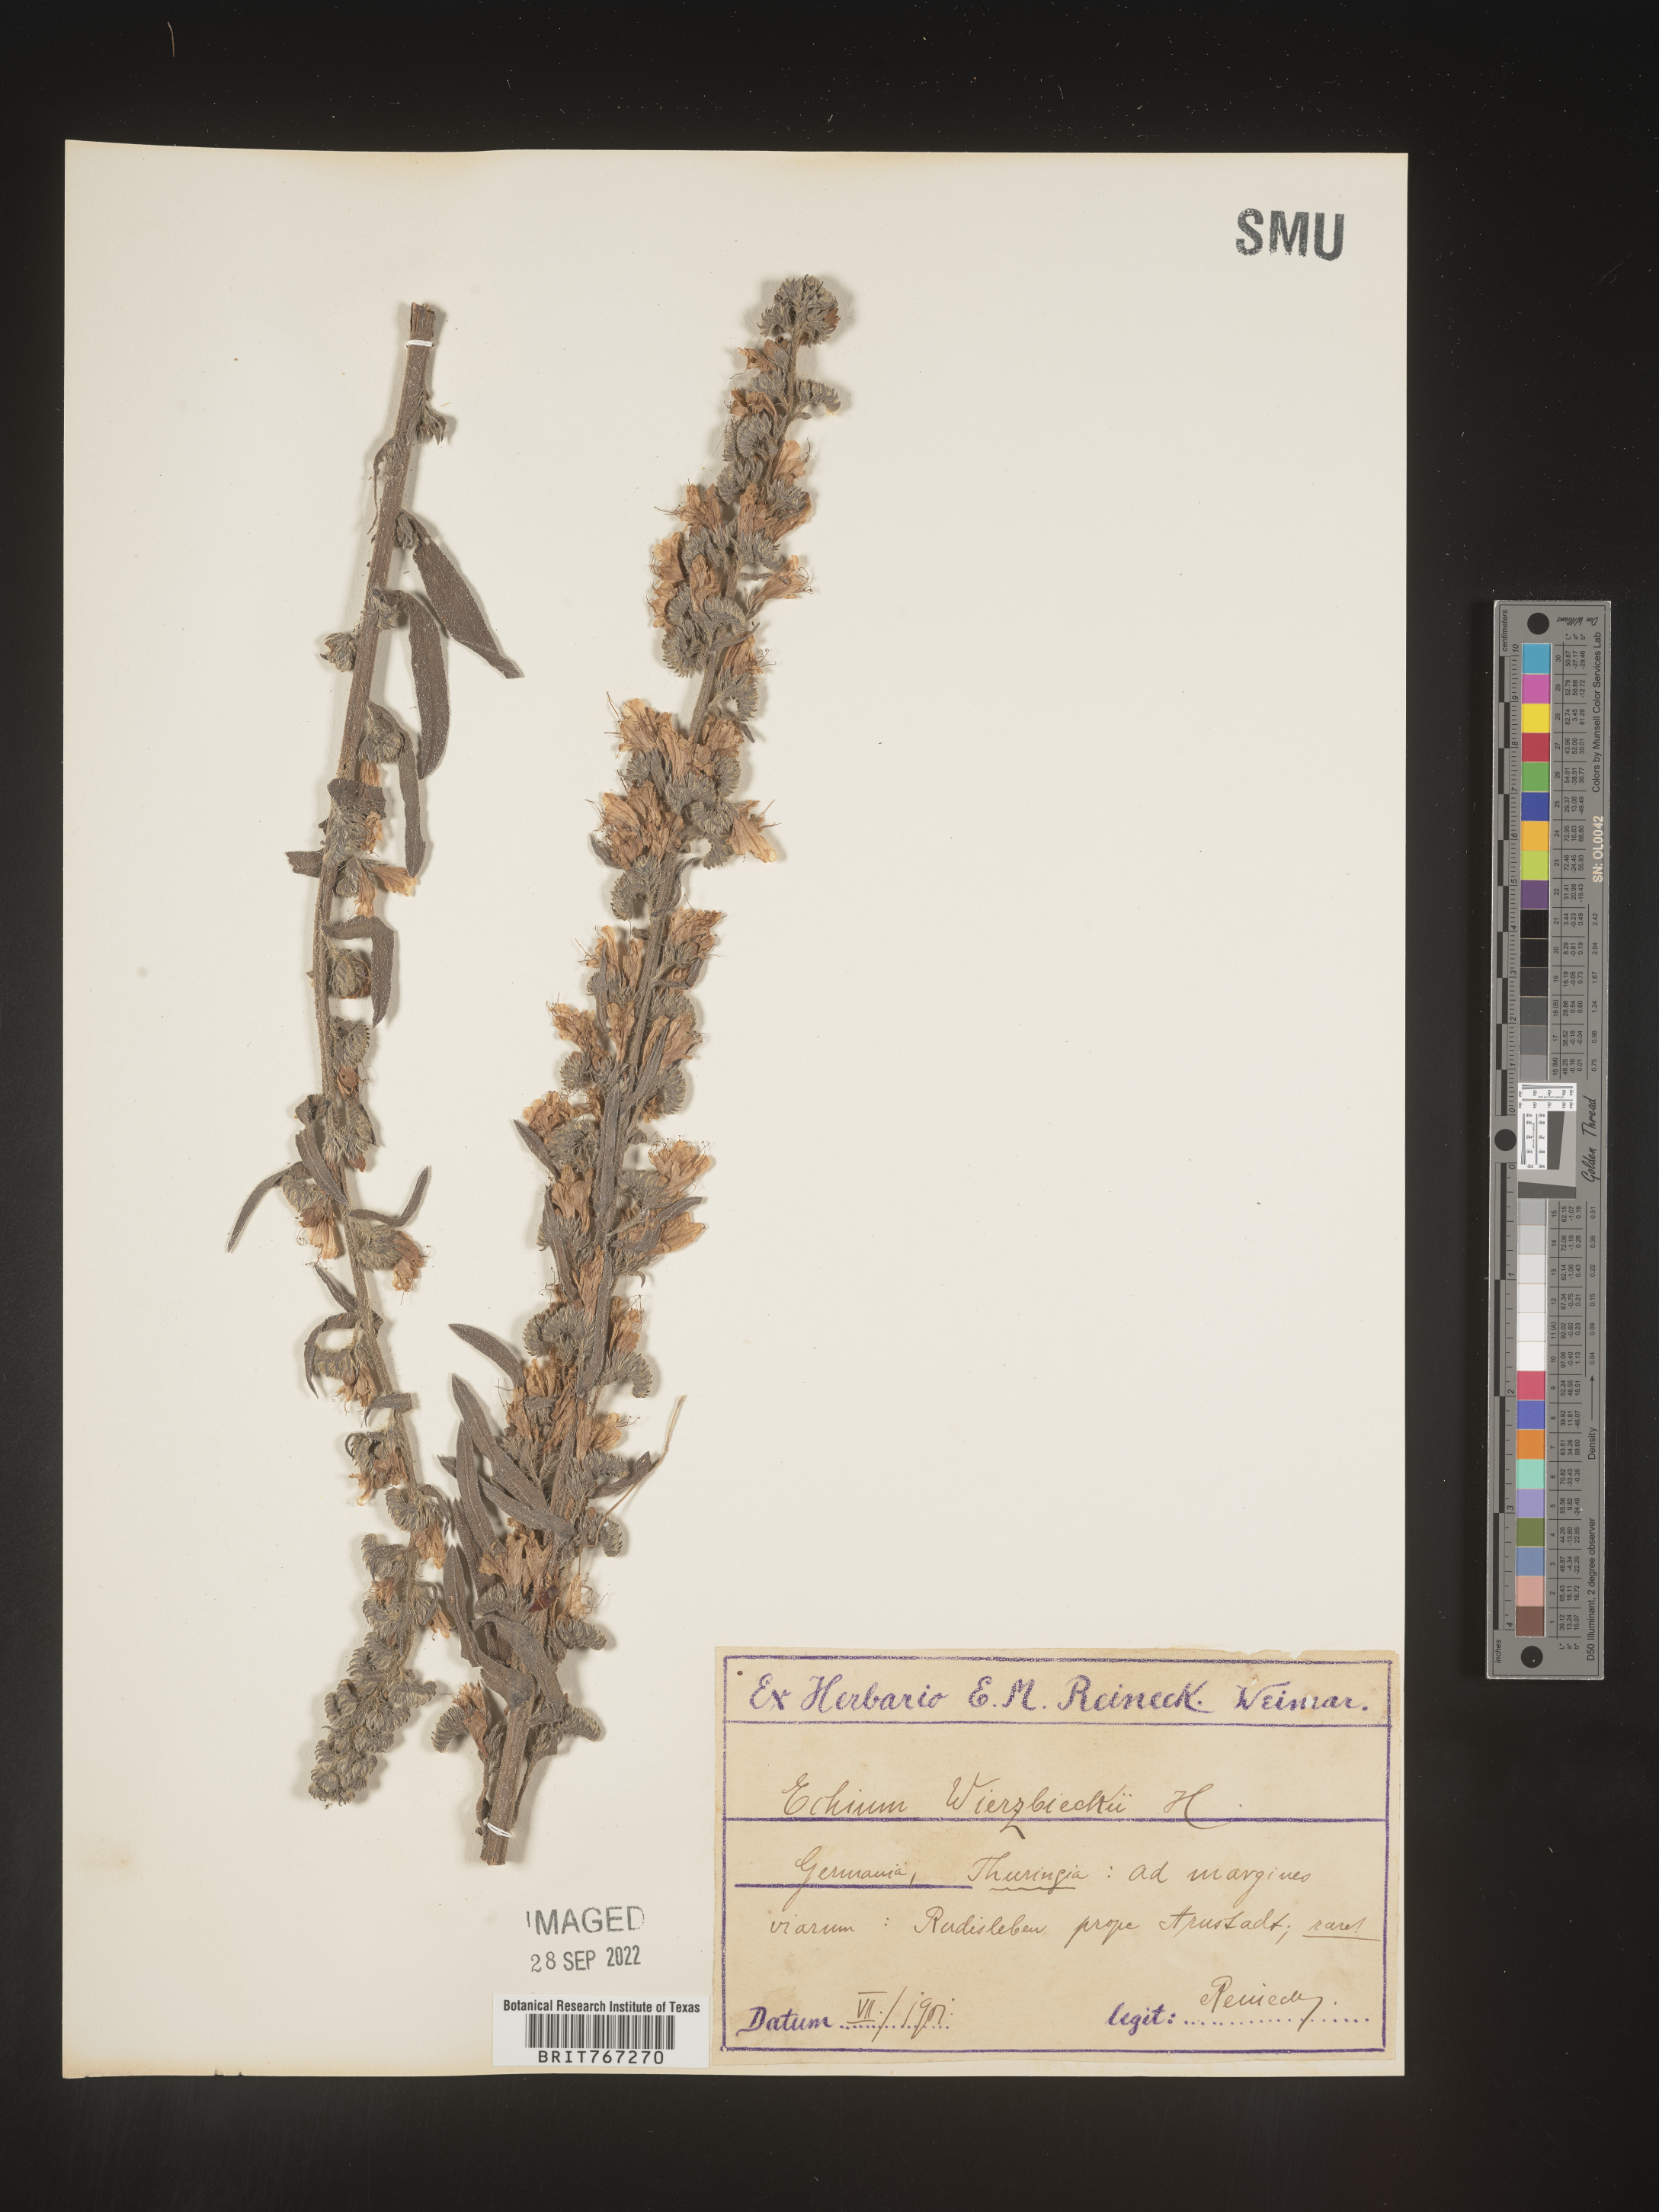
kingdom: Plantae
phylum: Tracheophyta
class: Magnoliopsida
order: Boraginales
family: Boraginaceae
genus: Echium
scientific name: Echium
